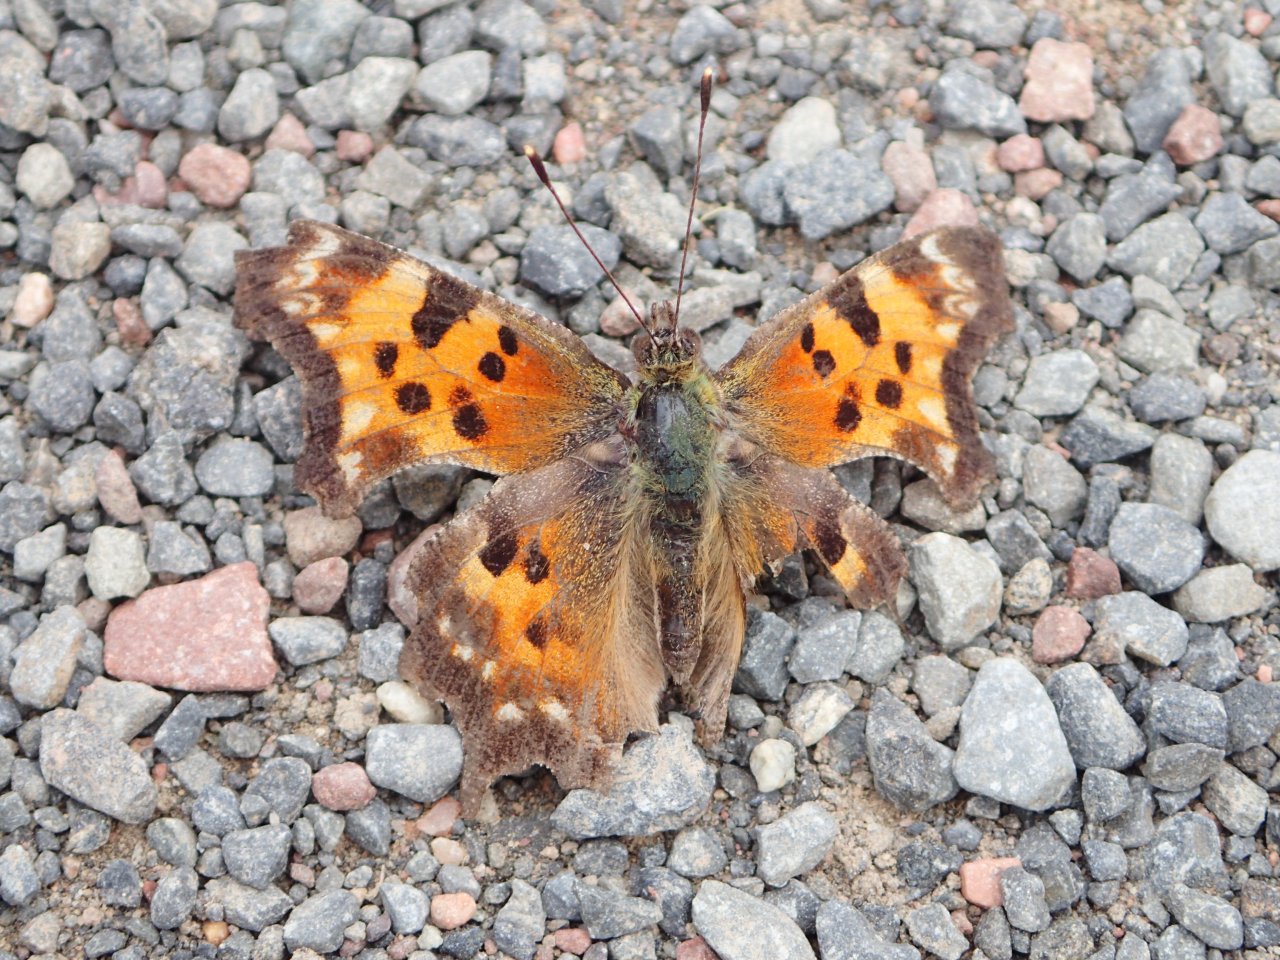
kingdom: Animalia
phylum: Arthropoda
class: Insecta
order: Lepidoptera
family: Nymphalidae
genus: Polygonia
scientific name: Polygonia faunus
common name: Green Comma
